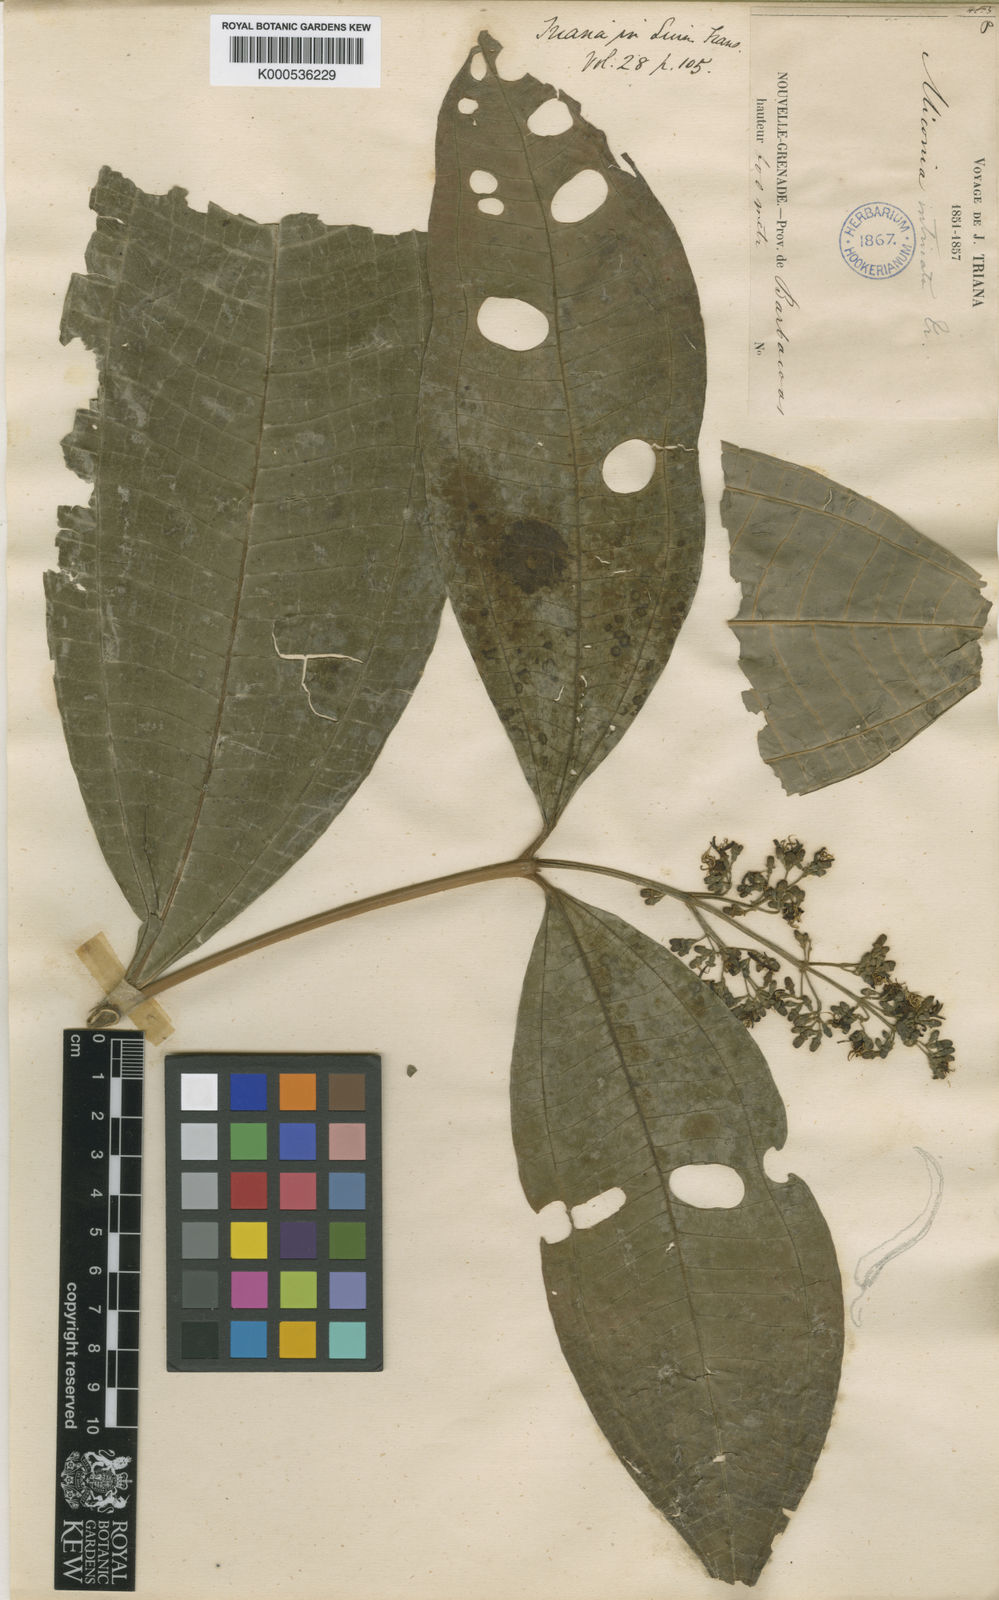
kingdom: Plantae
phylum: Tracheophyta
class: Magnoliopsida
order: Myrtales
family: Melastomataceae
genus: Miconia
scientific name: Miconia intricata
